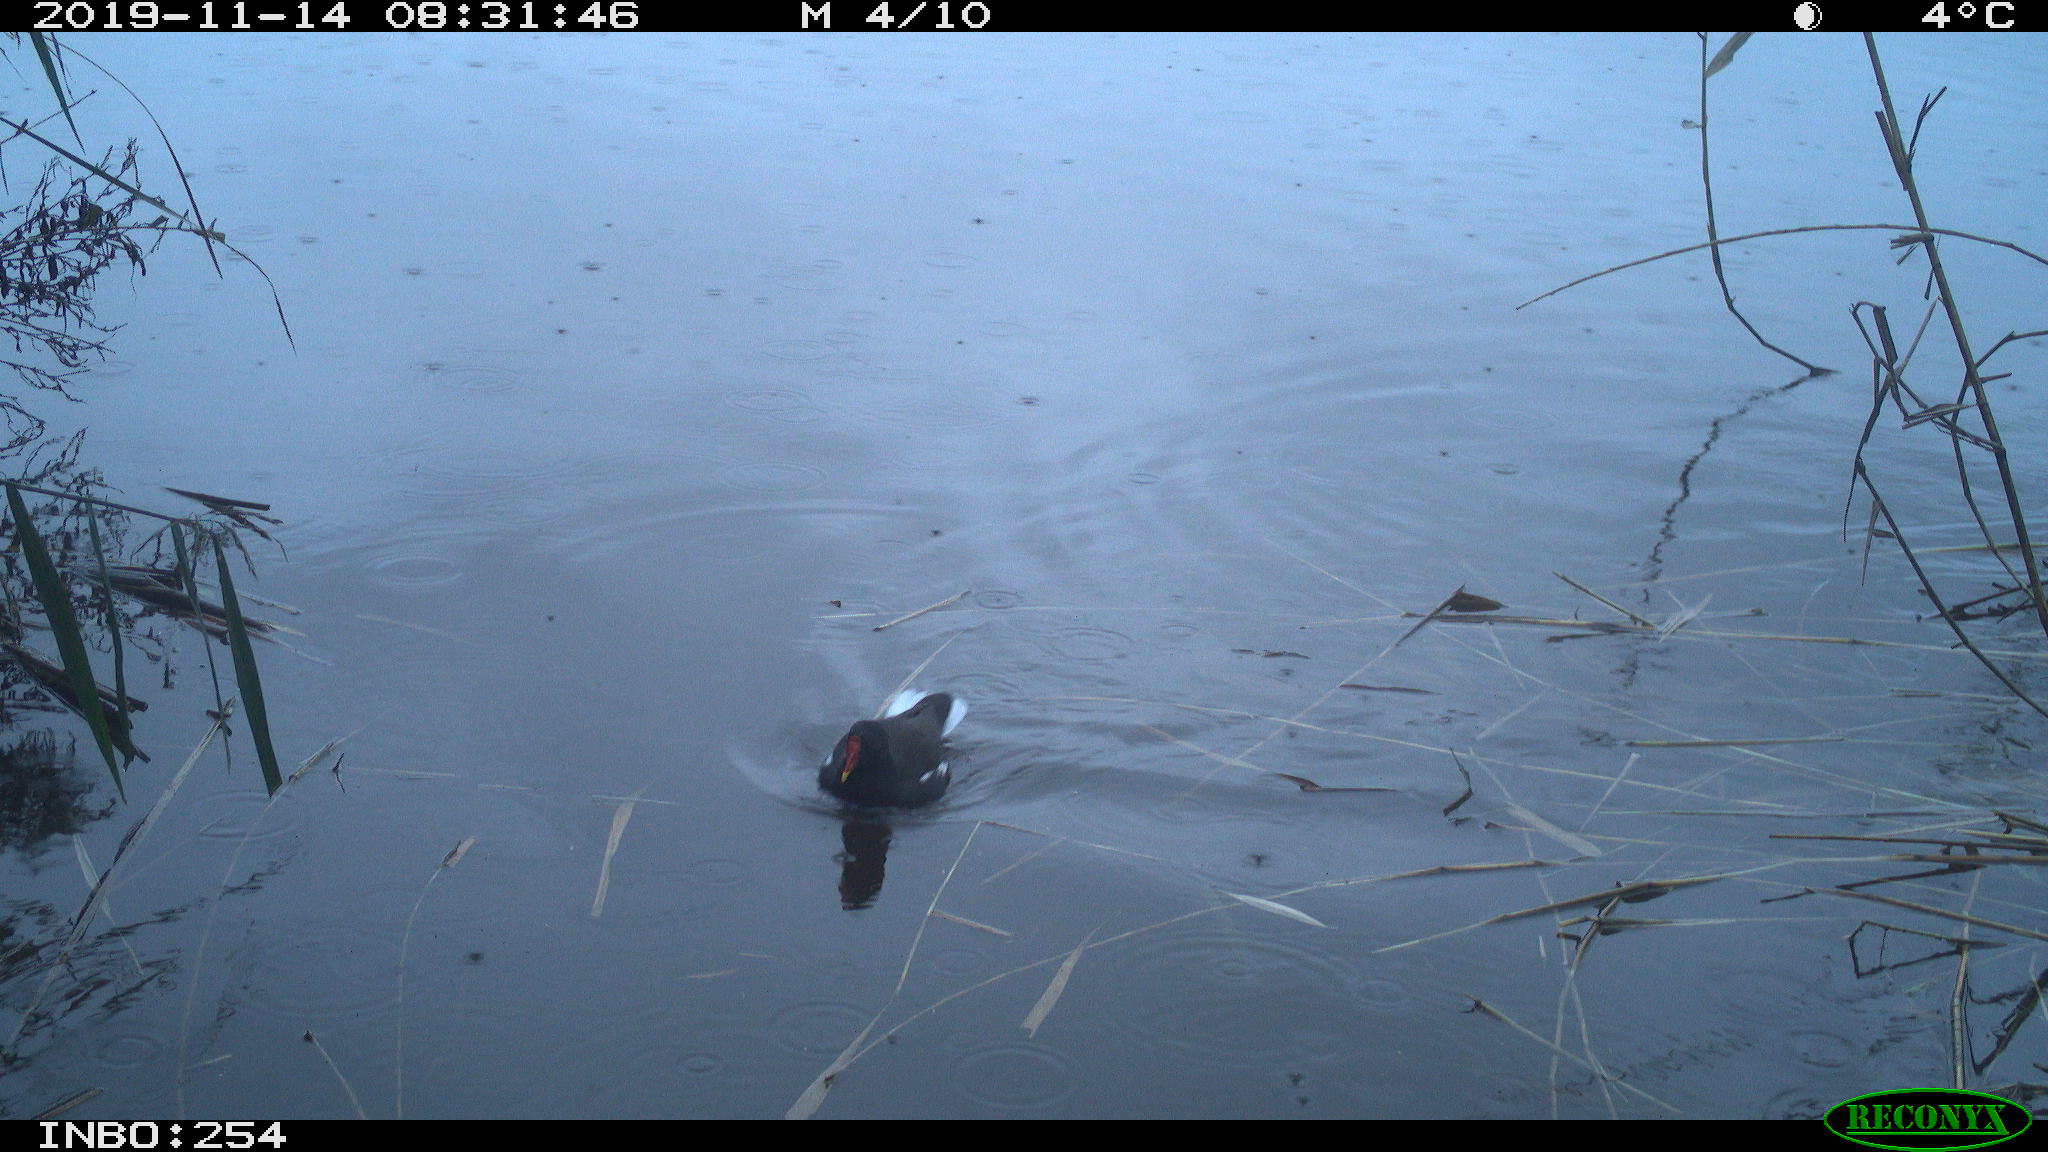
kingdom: Animalia
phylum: Chordata
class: Aves
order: Gruiformes
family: Rallidae
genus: Gallinula
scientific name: Gallinula chloropus
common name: Common moorhen
